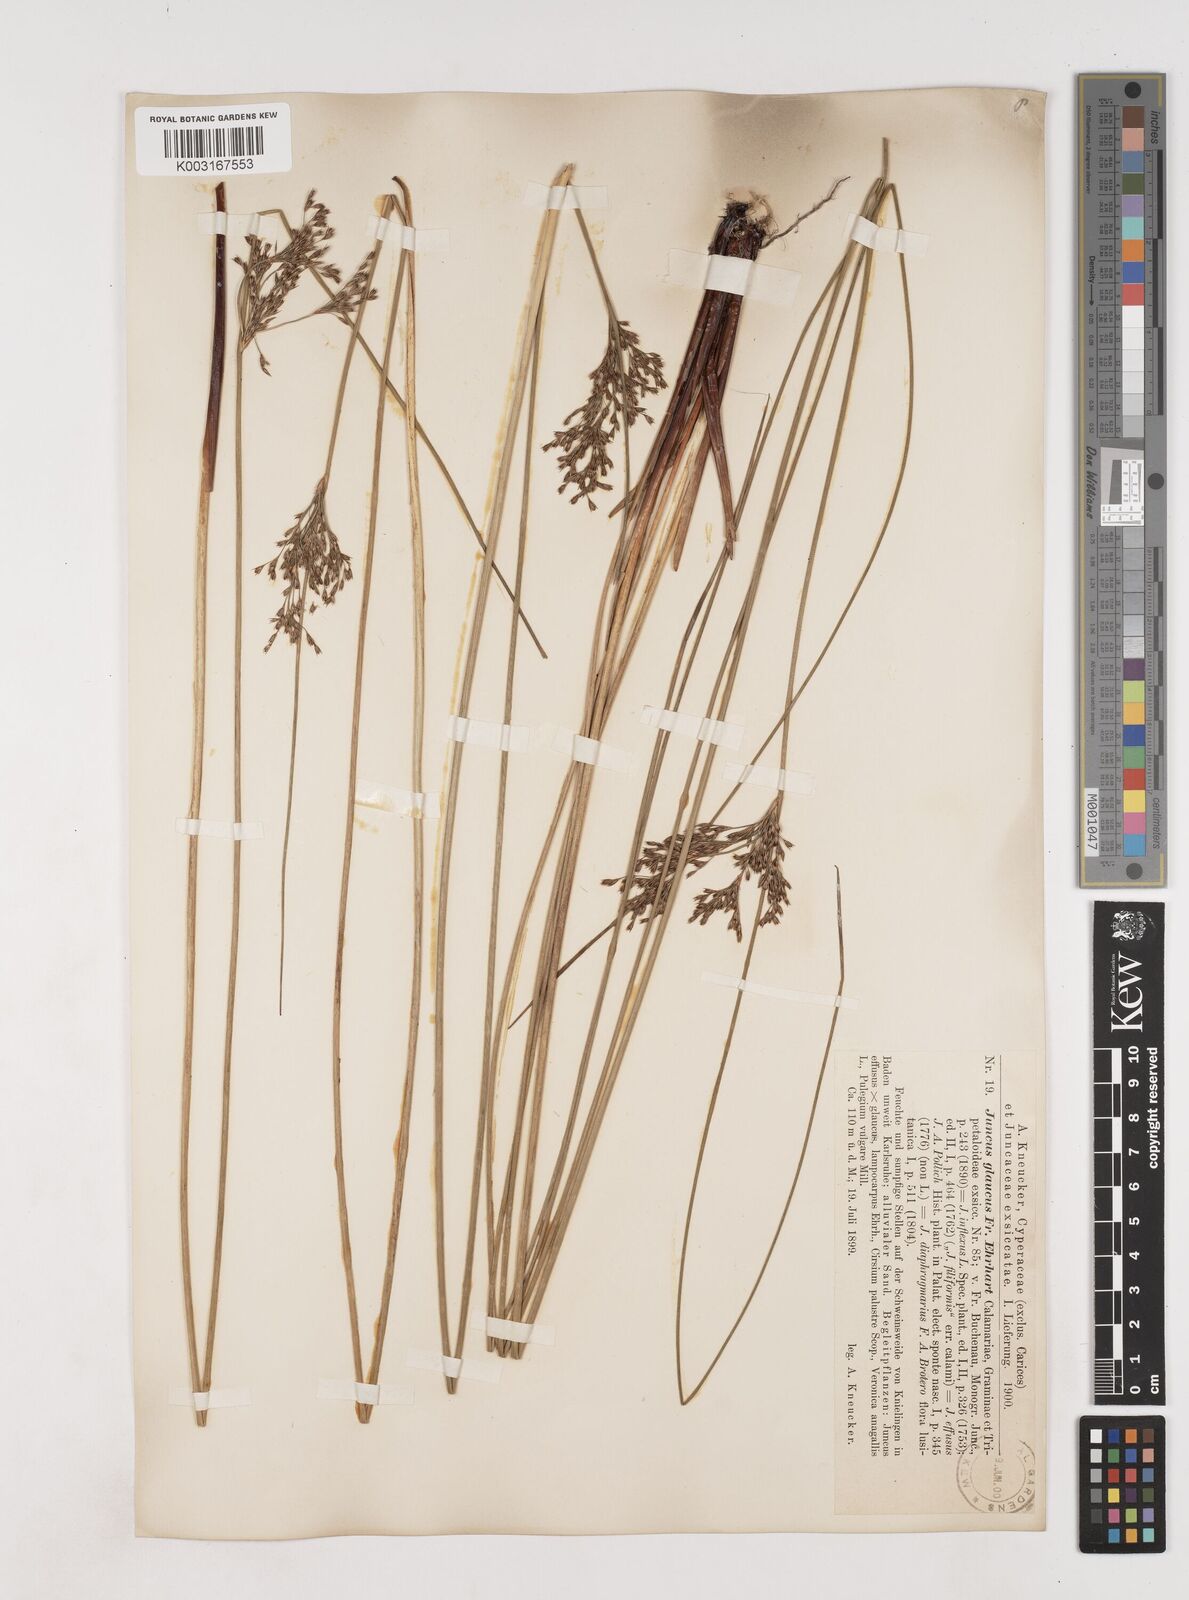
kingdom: Plantae
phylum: Tracheophyta
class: Liliopsida
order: Poales
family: Juncaceae
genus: Juncus
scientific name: Juncus inflexus
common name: Hard rush
